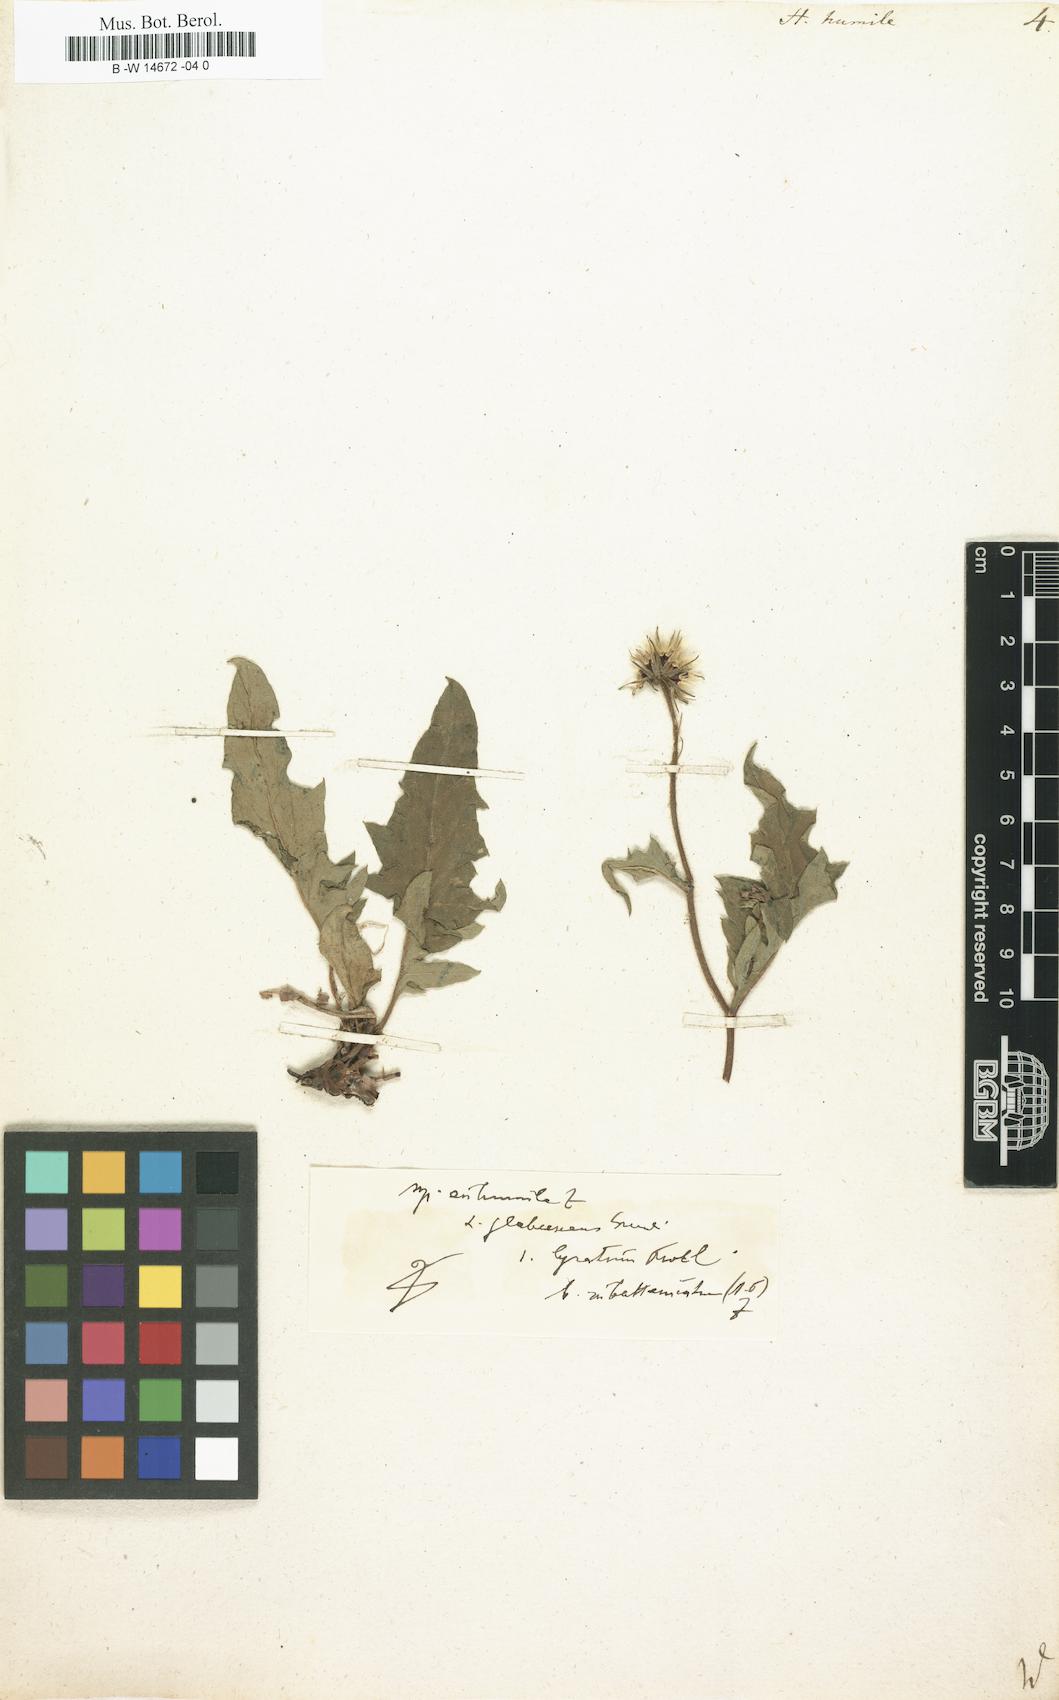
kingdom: Plantae
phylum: Tracheophyta
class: Magnoliopsida
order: Asterales
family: Asteraceae
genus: Hieracium
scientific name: Hieracium humile
